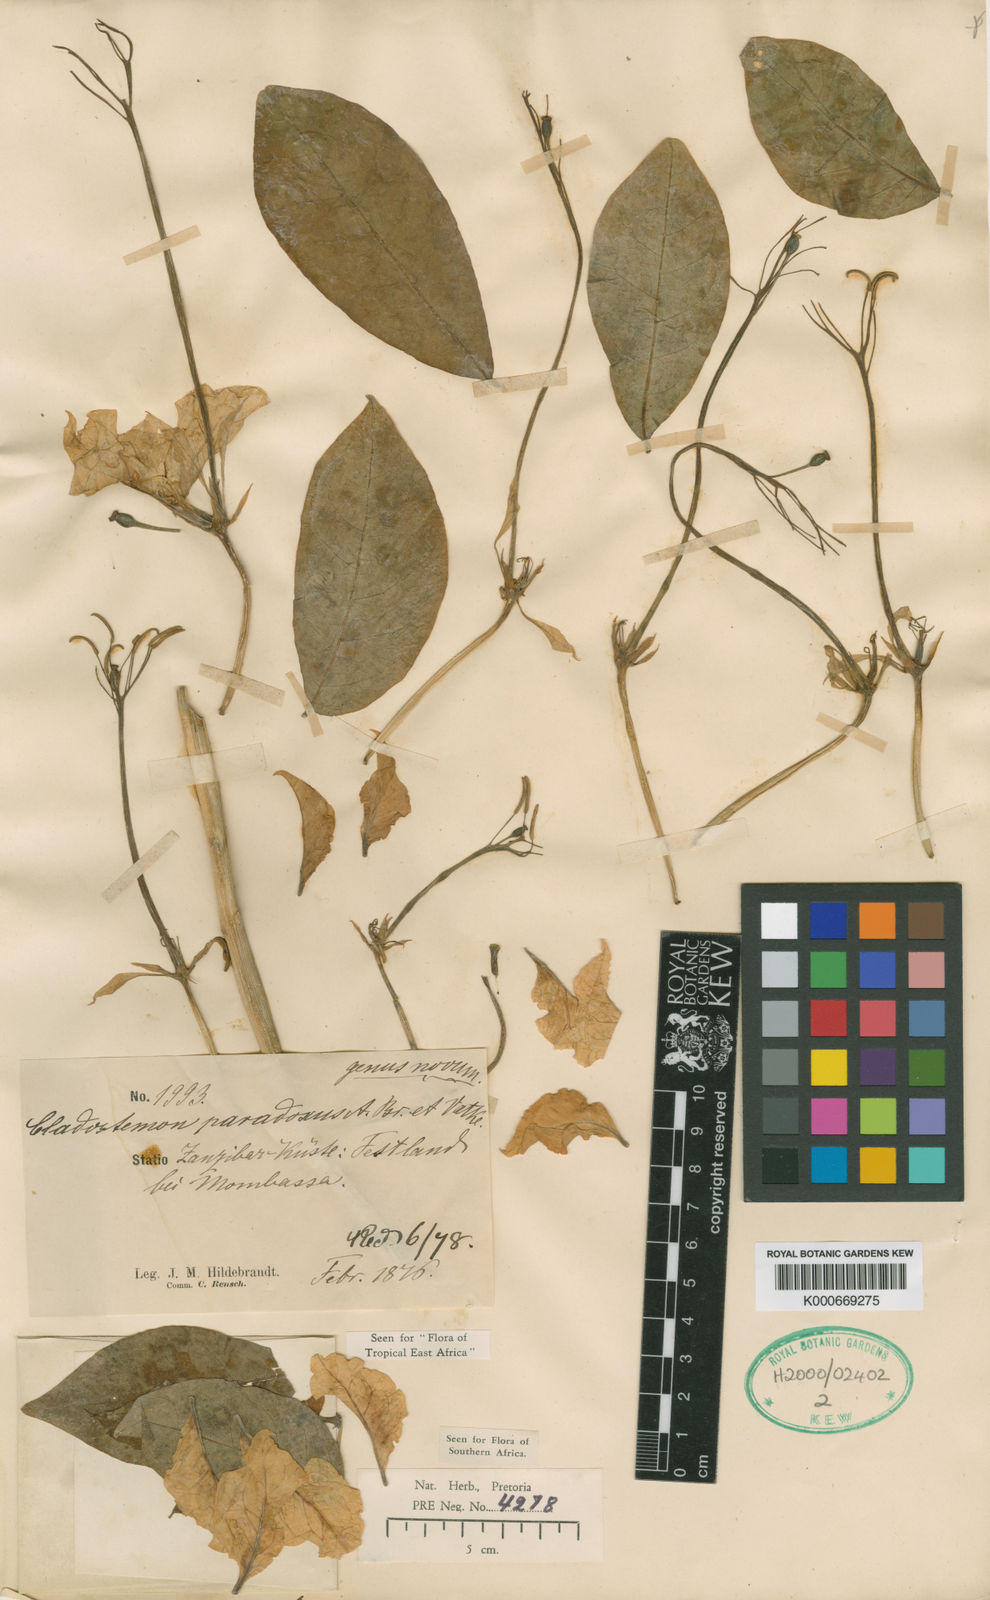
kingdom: Plantae
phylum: Tracheophyta
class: Magnoliopsida
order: Brassicales
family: Capparaceae
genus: Cladostemon
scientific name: Cladostemon kirkii
